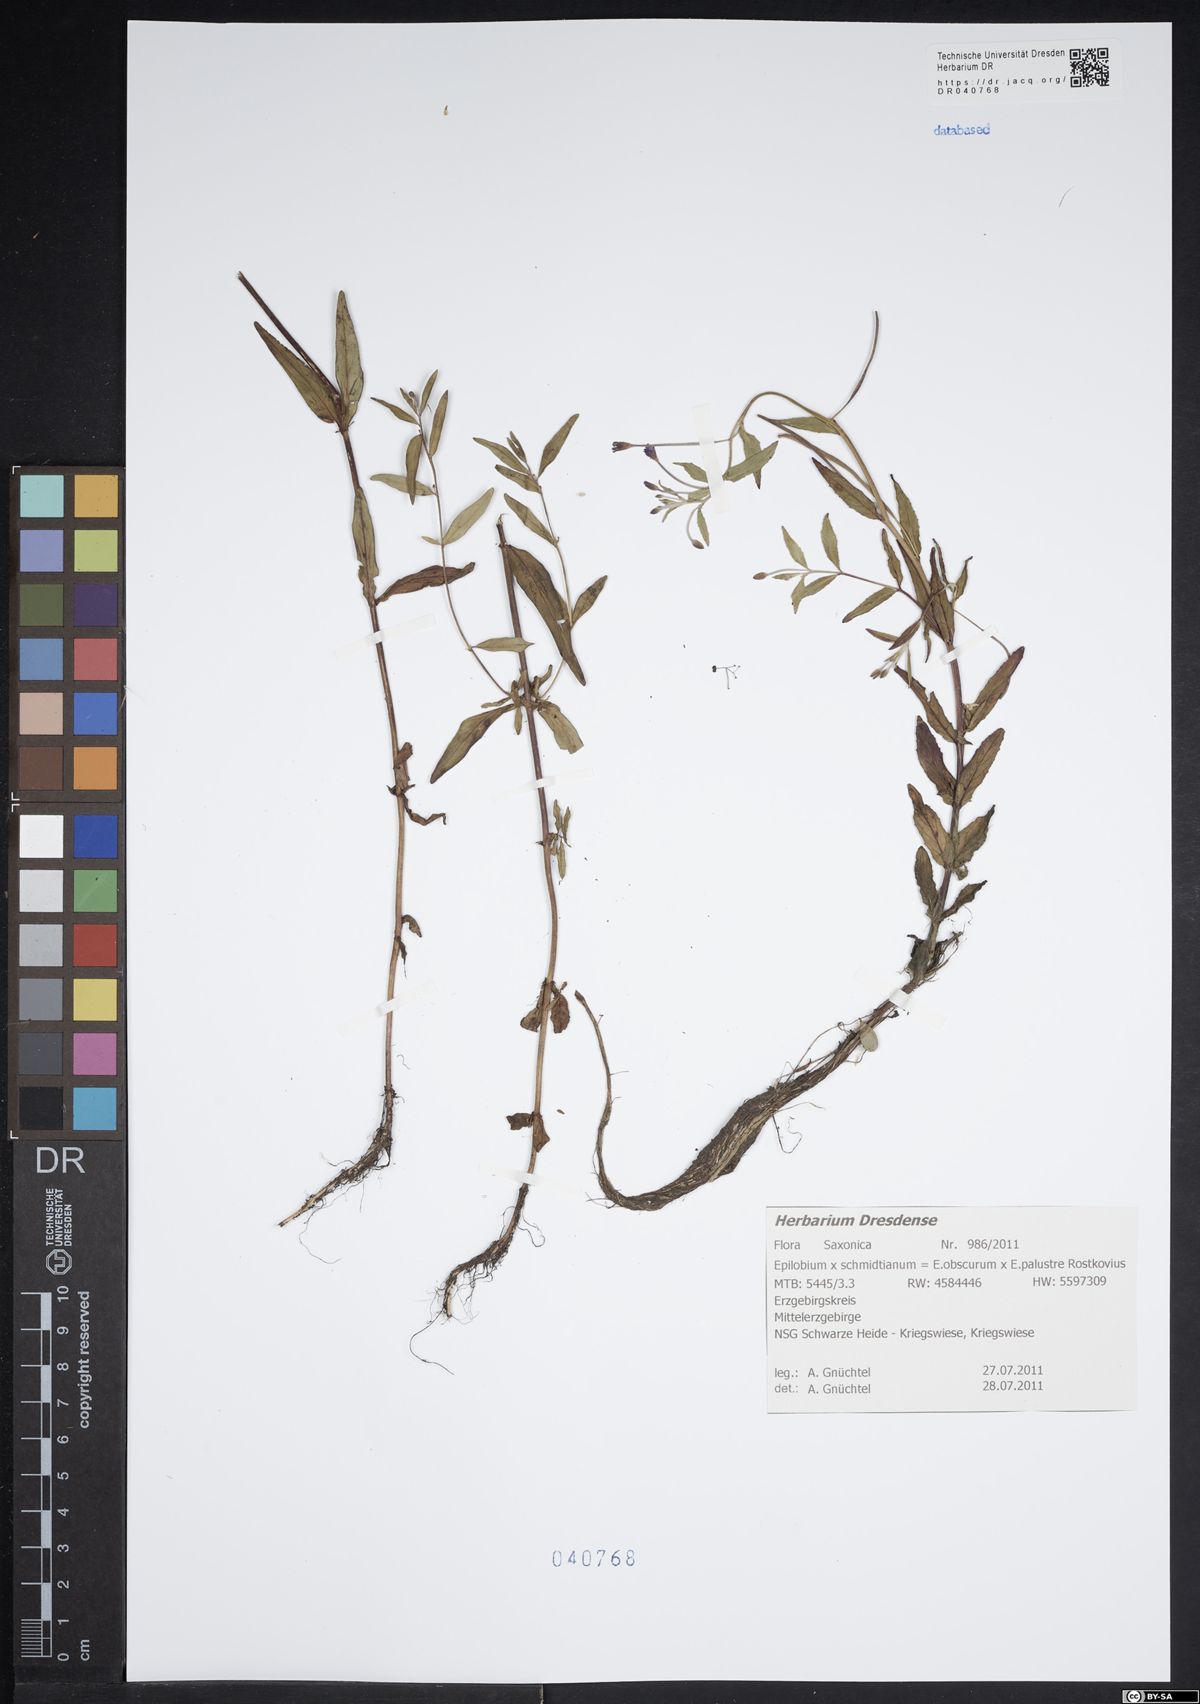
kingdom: Plantae
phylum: Tracheophyta
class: Magnoliopsida
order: Myrtales
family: Onagraceae
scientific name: Onagraceae
